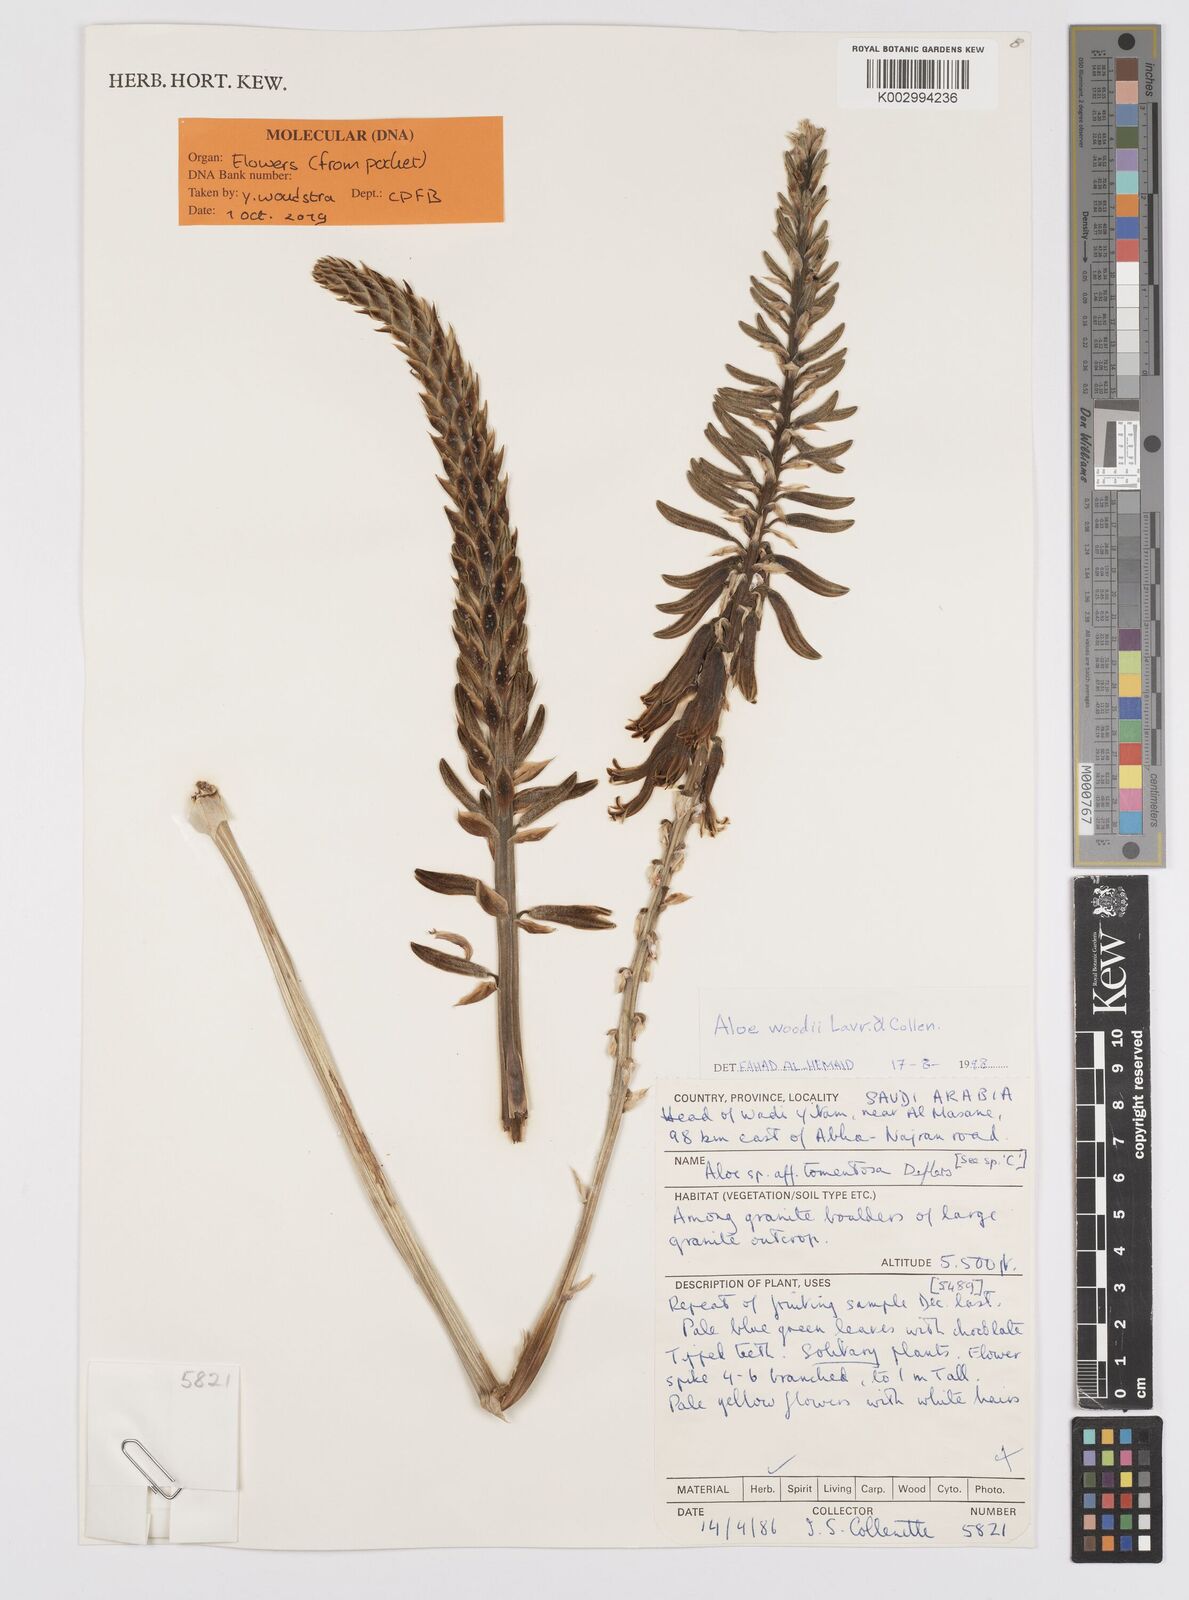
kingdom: Plantae
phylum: Tracheophyta
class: Liliopsida
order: Asparagales
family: Asphodelaceae
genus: Aloe
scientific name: Aloe woodii
